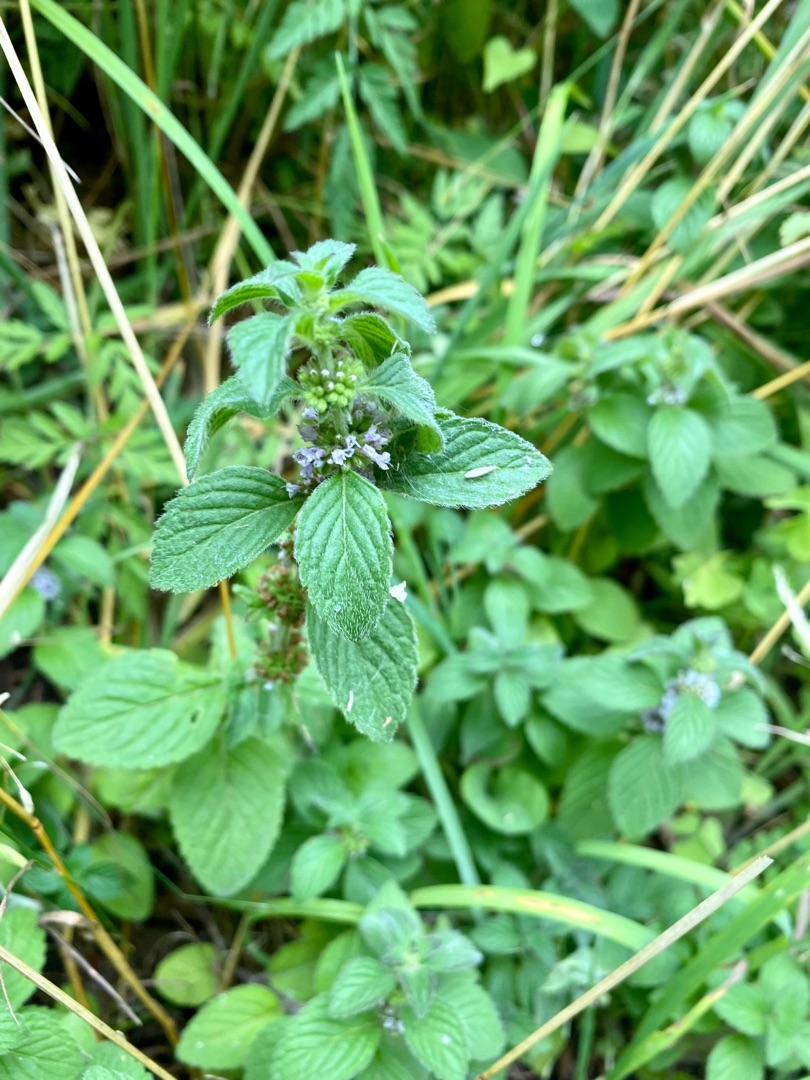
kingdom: Plantae
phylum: Tracheophyta
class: Magnoliopsida
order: Lamiales
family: Lamiaceae
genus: Mentha
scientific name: Mentha arvensis
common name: Ager-mynte
